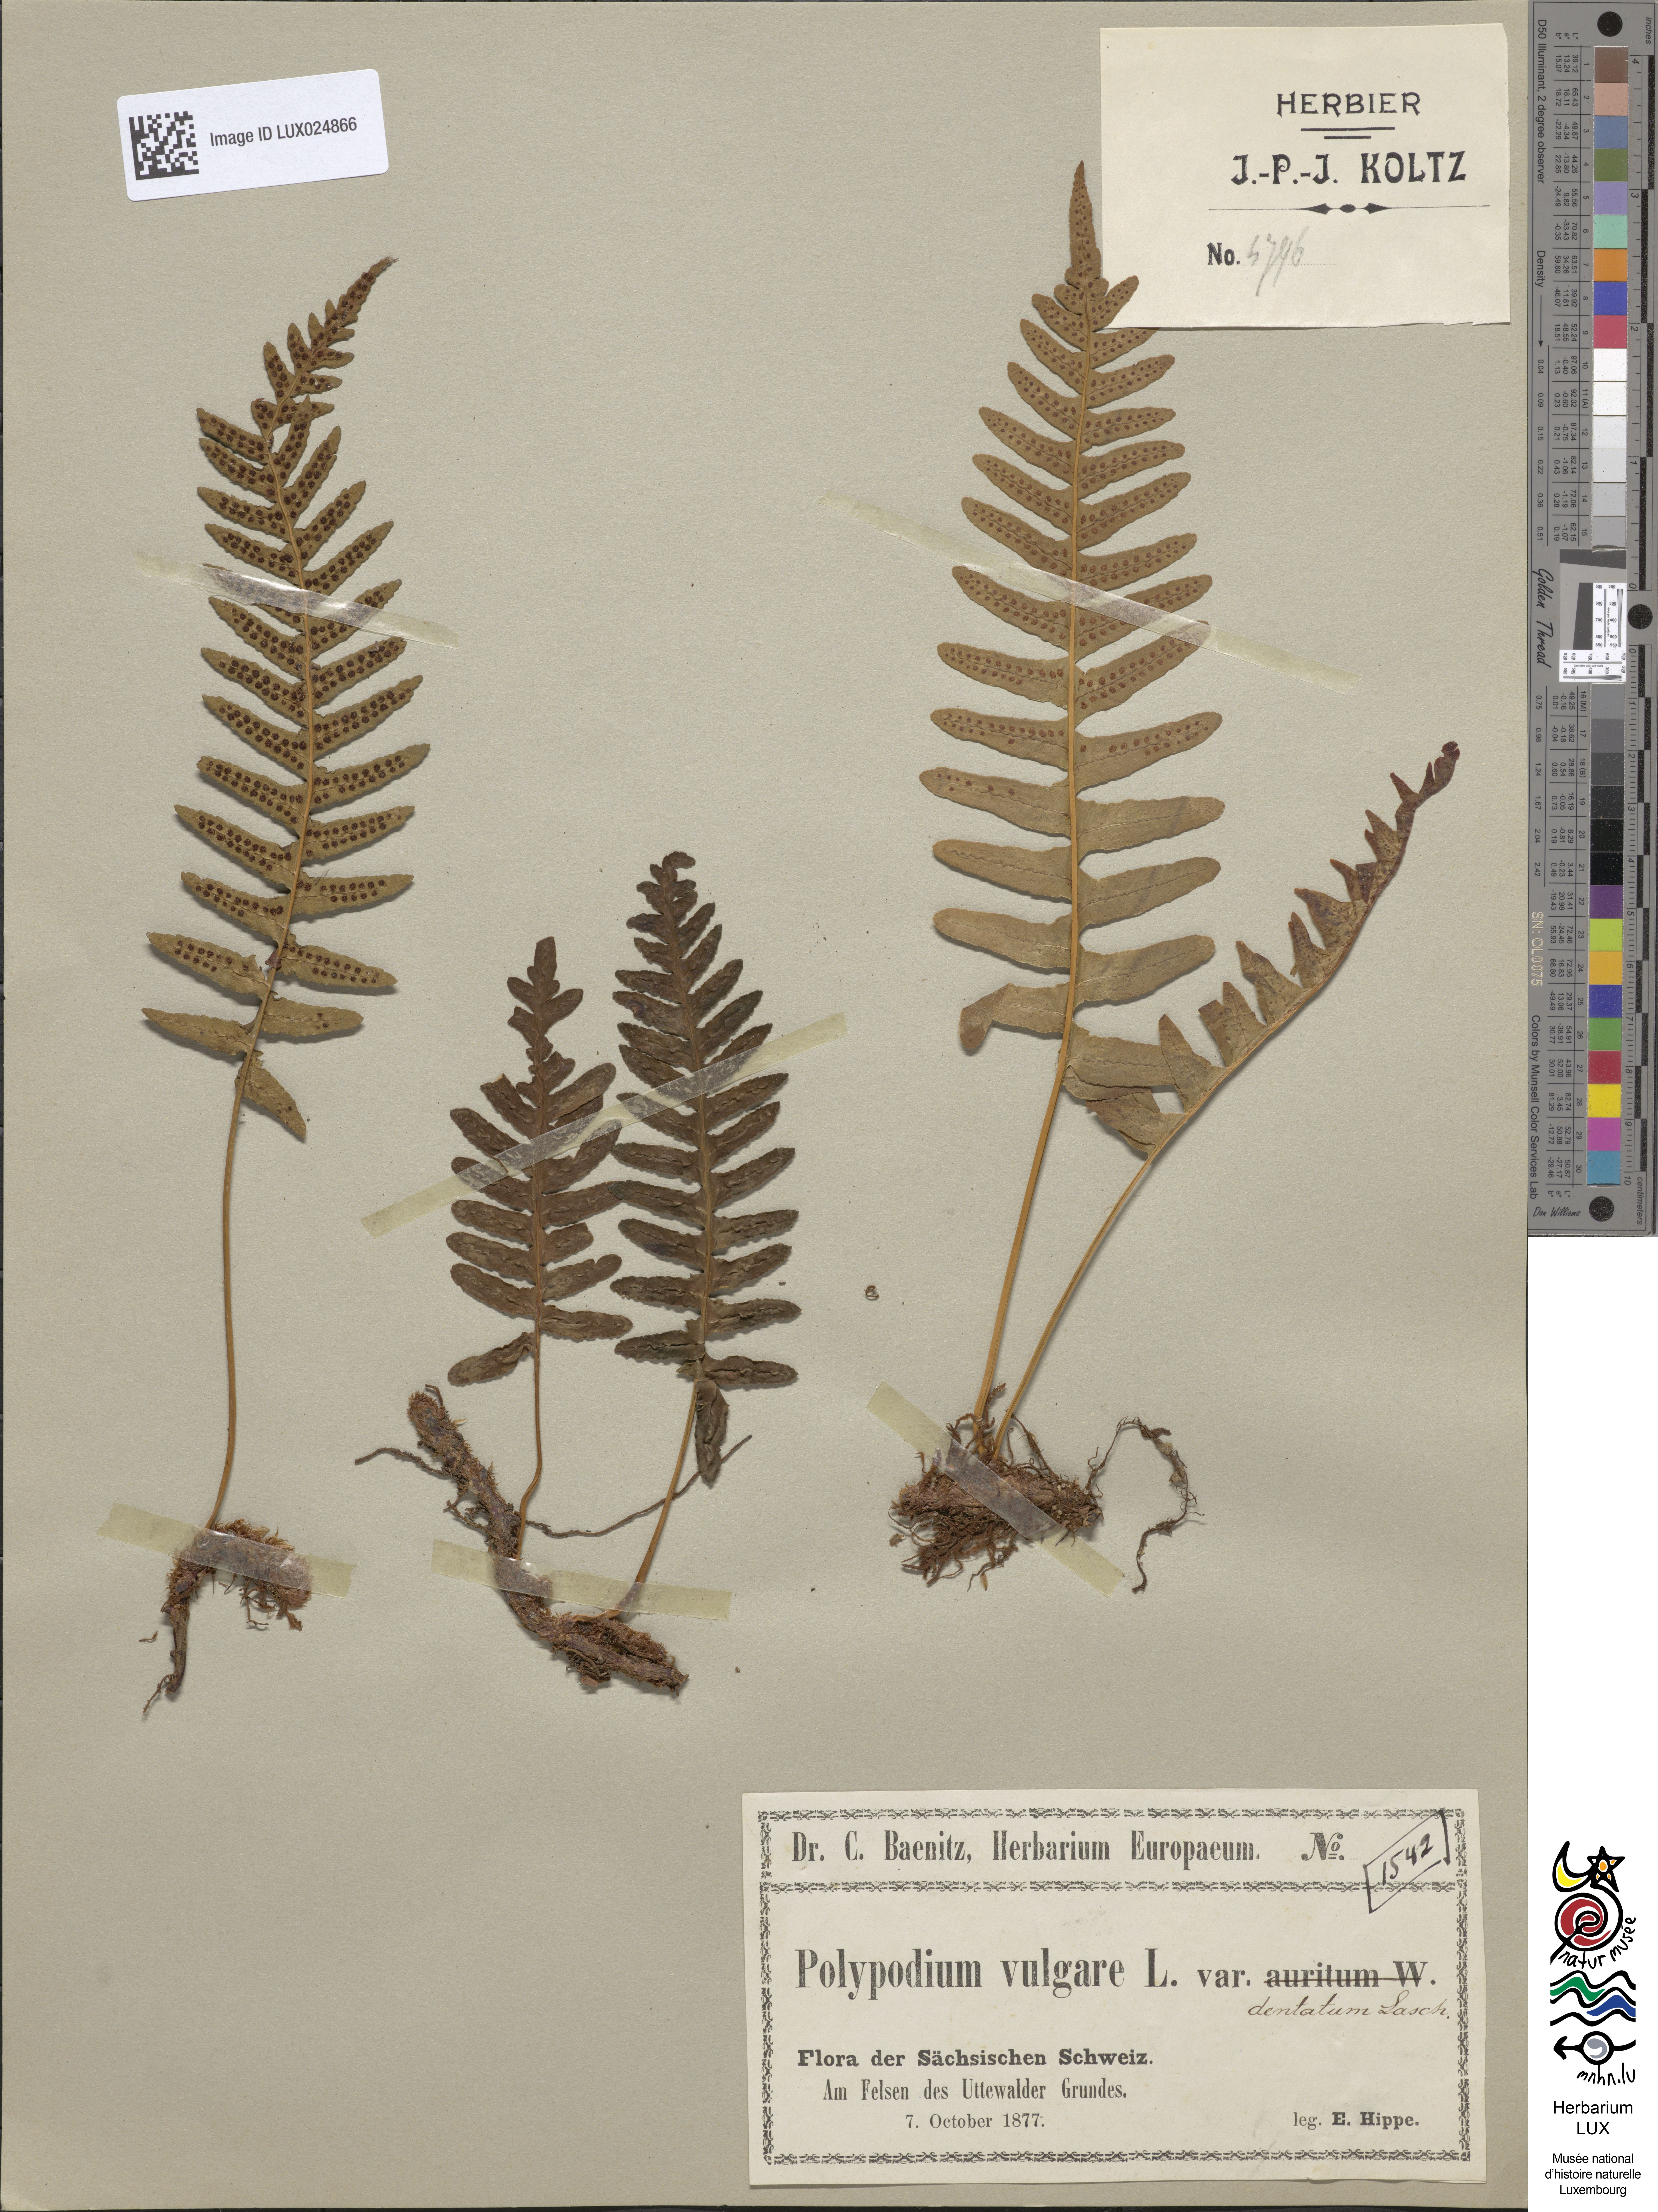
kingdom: Plantae
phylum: Tracheophyta
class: Polypodiopsida
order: Polypodiales
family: Polypodiaceae
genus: Polypodium
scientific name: Polypodium vulgare
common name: Common polypody
